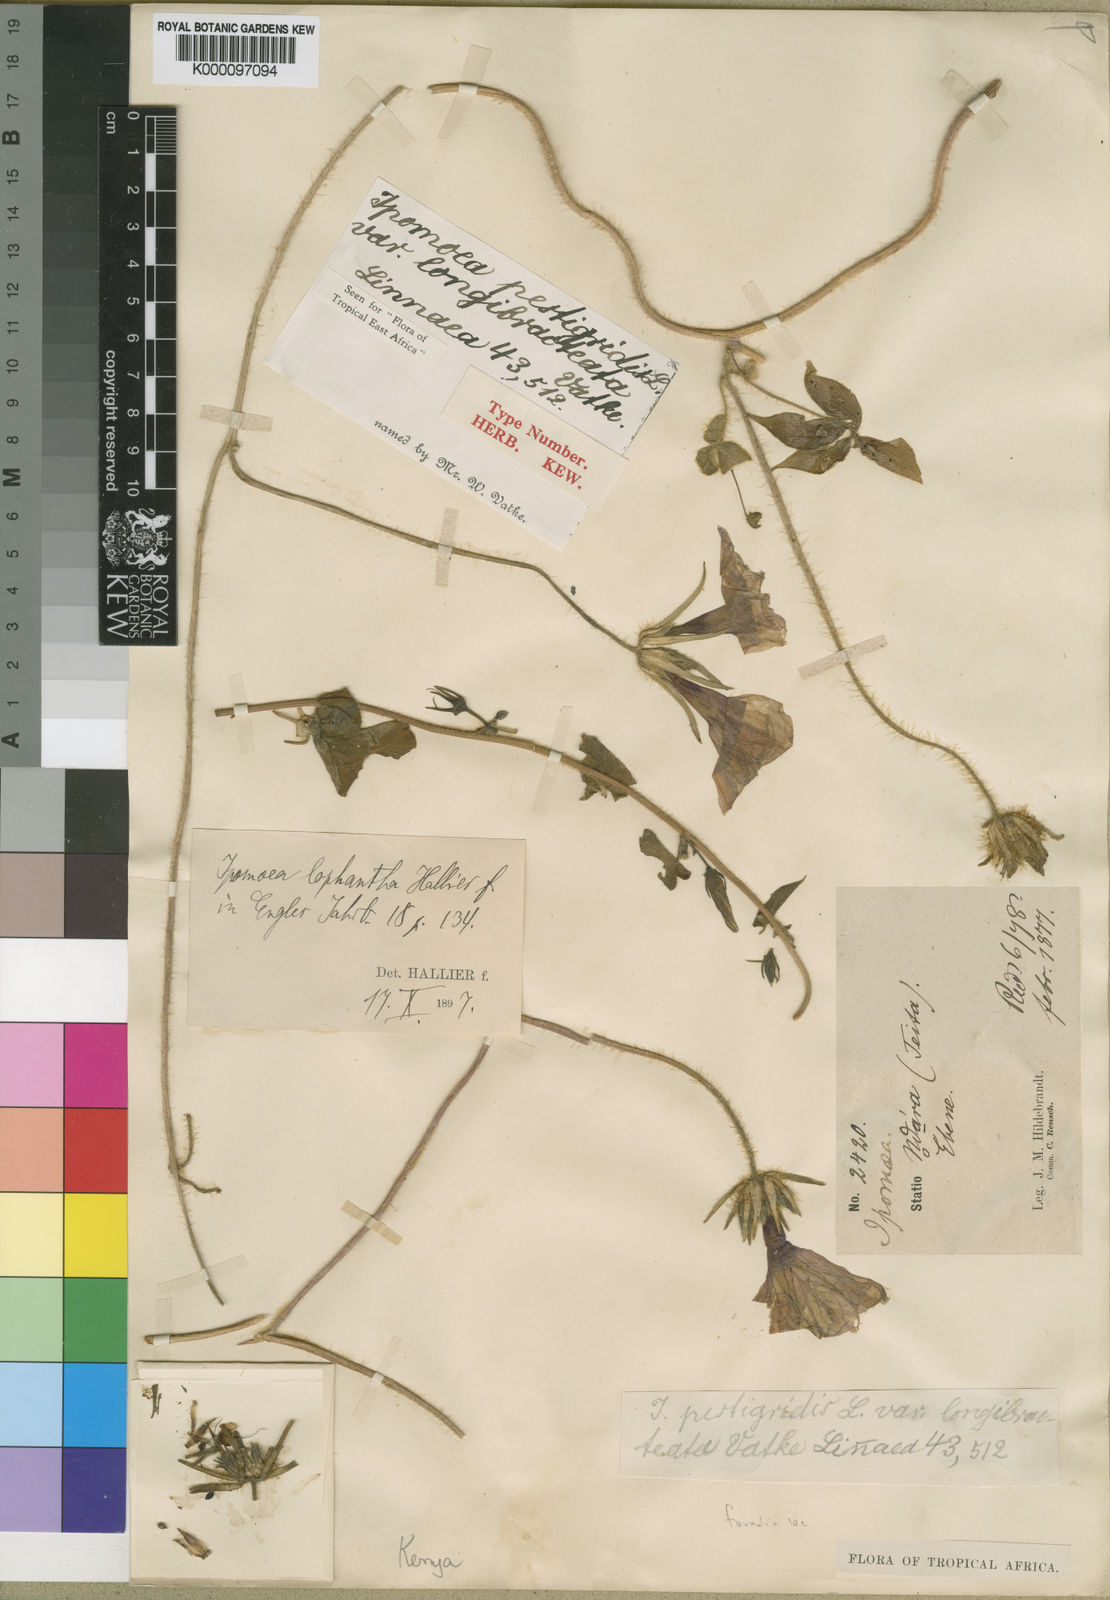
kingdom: Plantae
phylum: Tracheophyta
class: Magnoliopsida
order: Solanales
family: Convolvulaceae
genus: Ipomoea
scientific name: Ipomoea pes-tigridis
